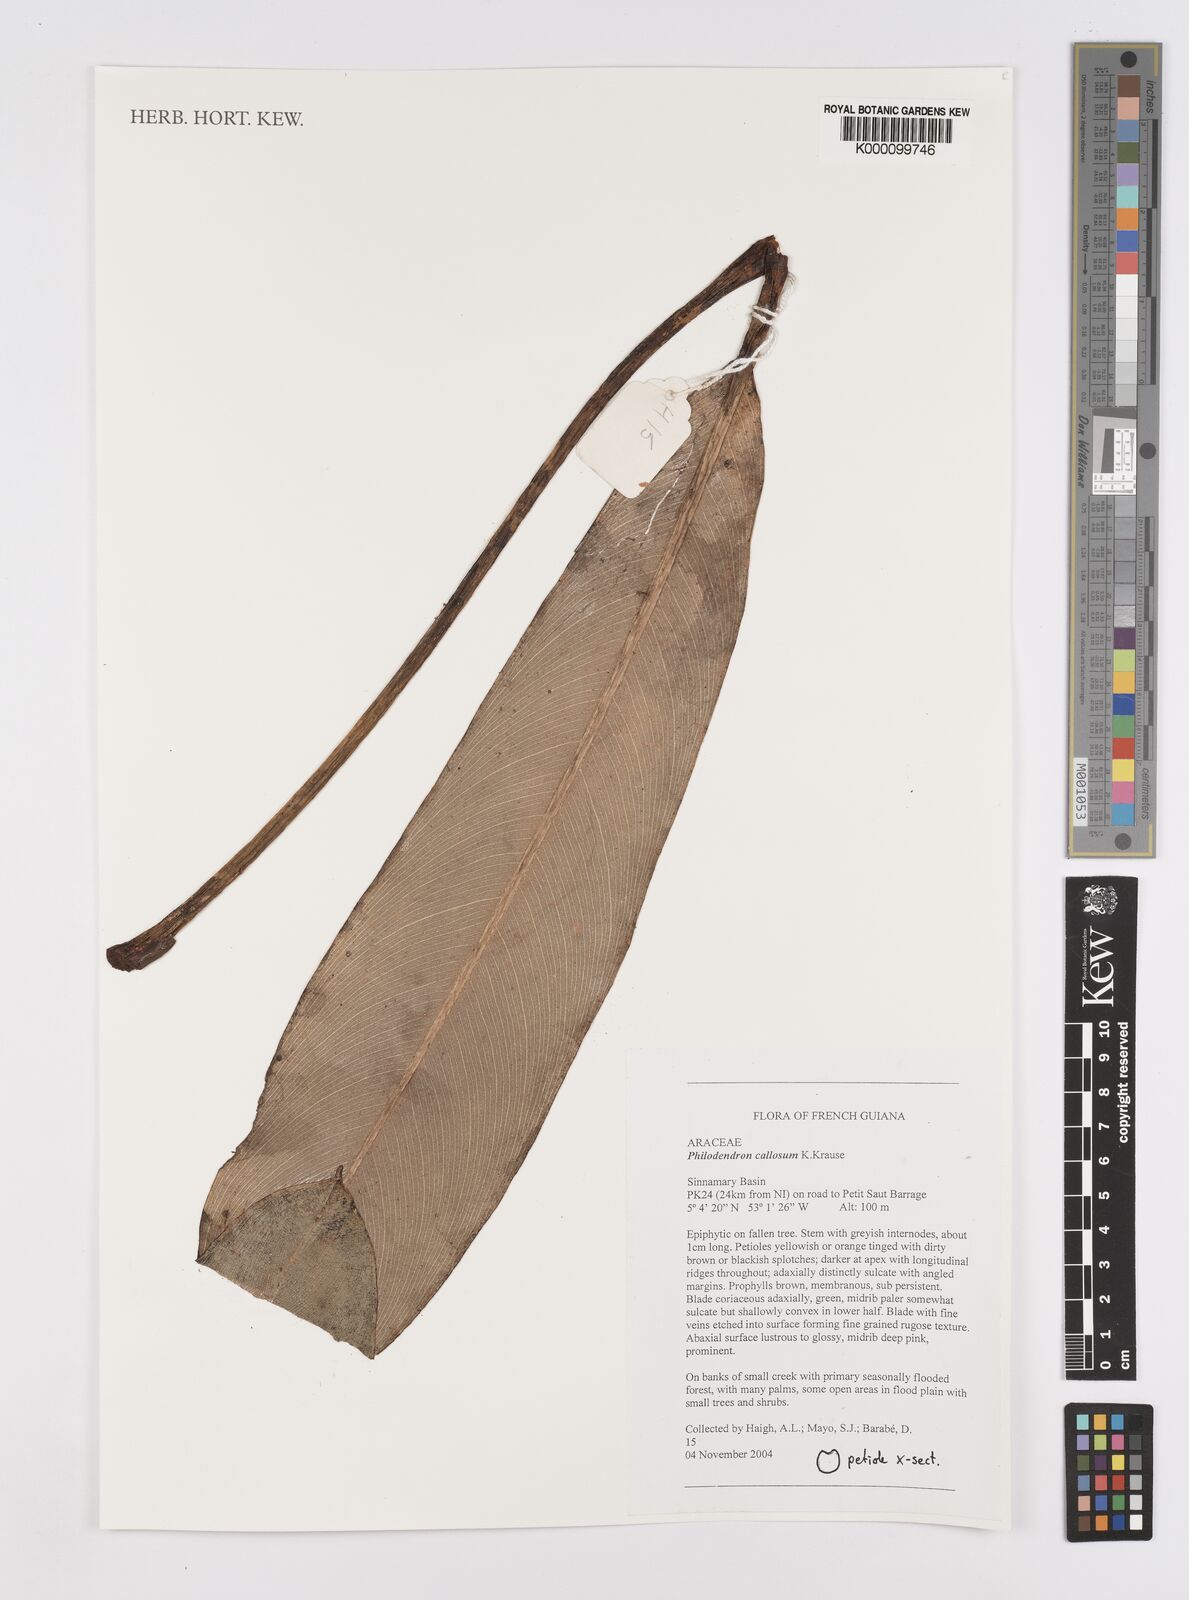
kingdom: Plantae
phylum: Tracheophyta
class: Liliopsida
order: Alismatales
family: Araceae
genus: Philodendron
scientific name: Philodendron callosum
